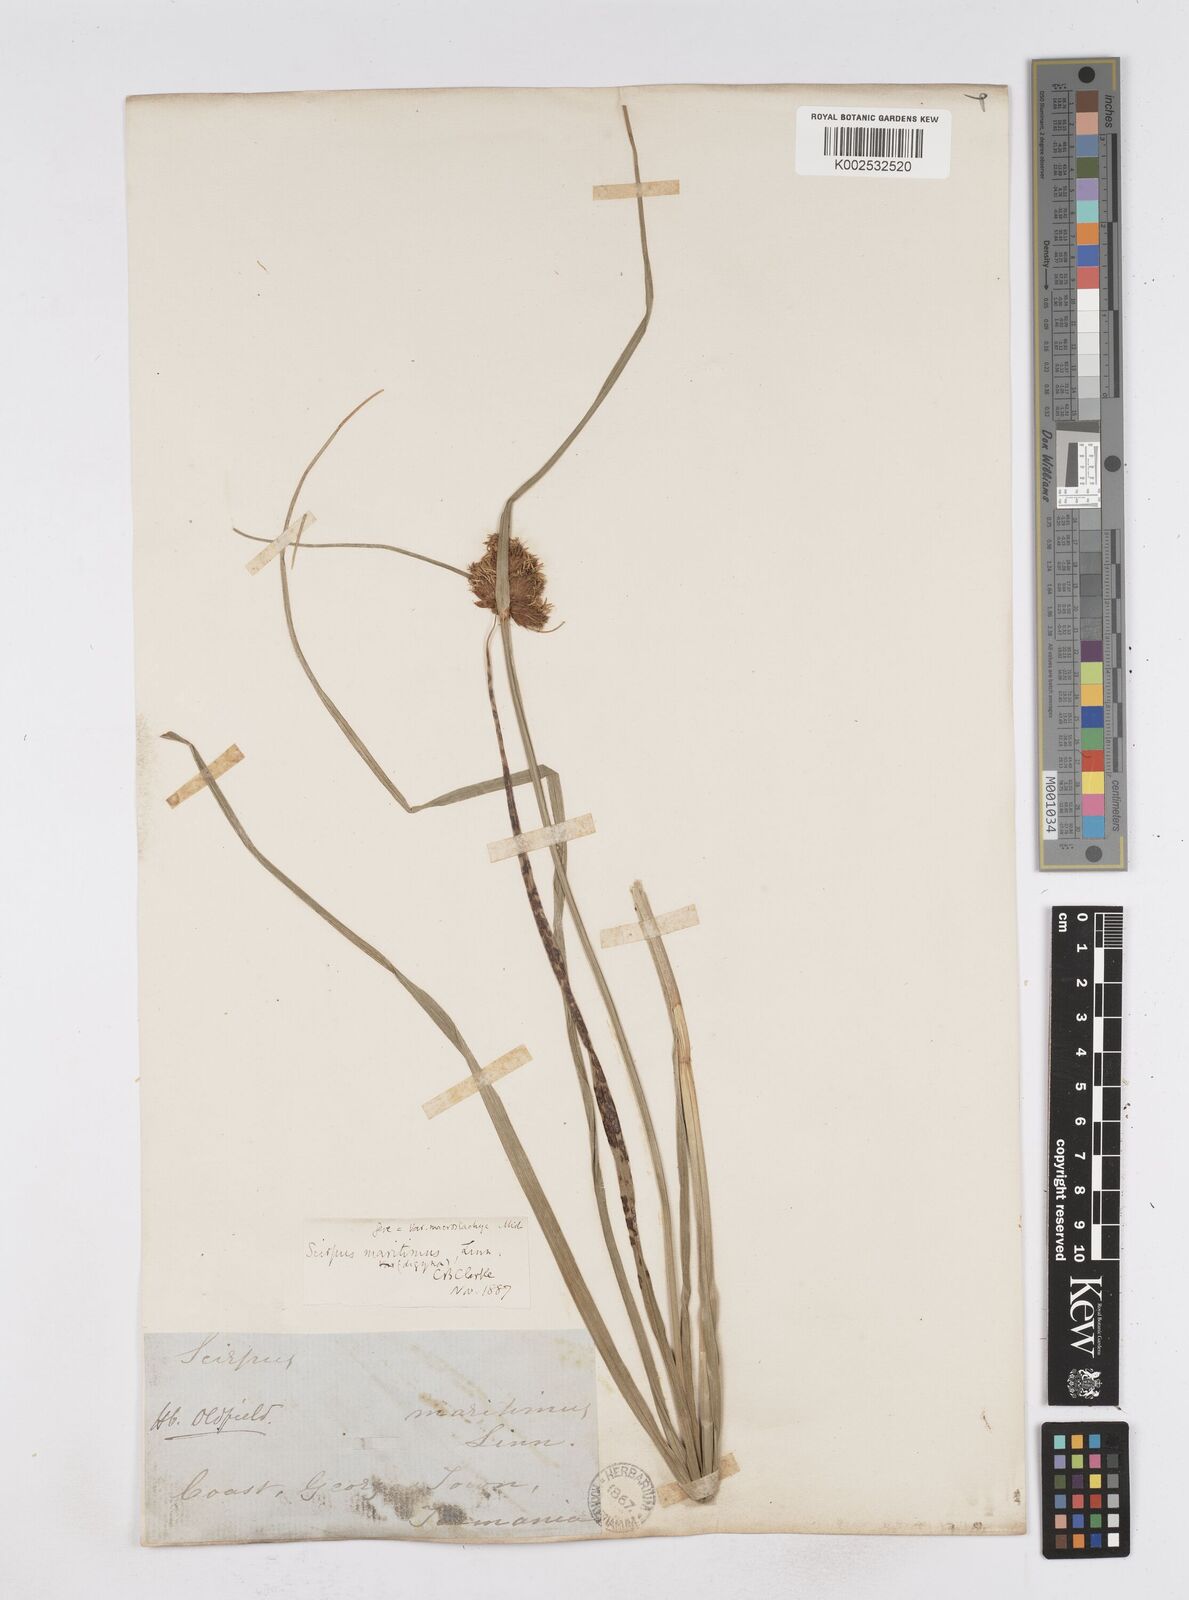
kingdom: Plantae
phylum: Tracheophyta
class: Liliopsida
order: Poales
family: Cyperaceae
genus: Bolboschoenus
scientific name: Bolboschoenus maritimus
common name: Sea club-rush
